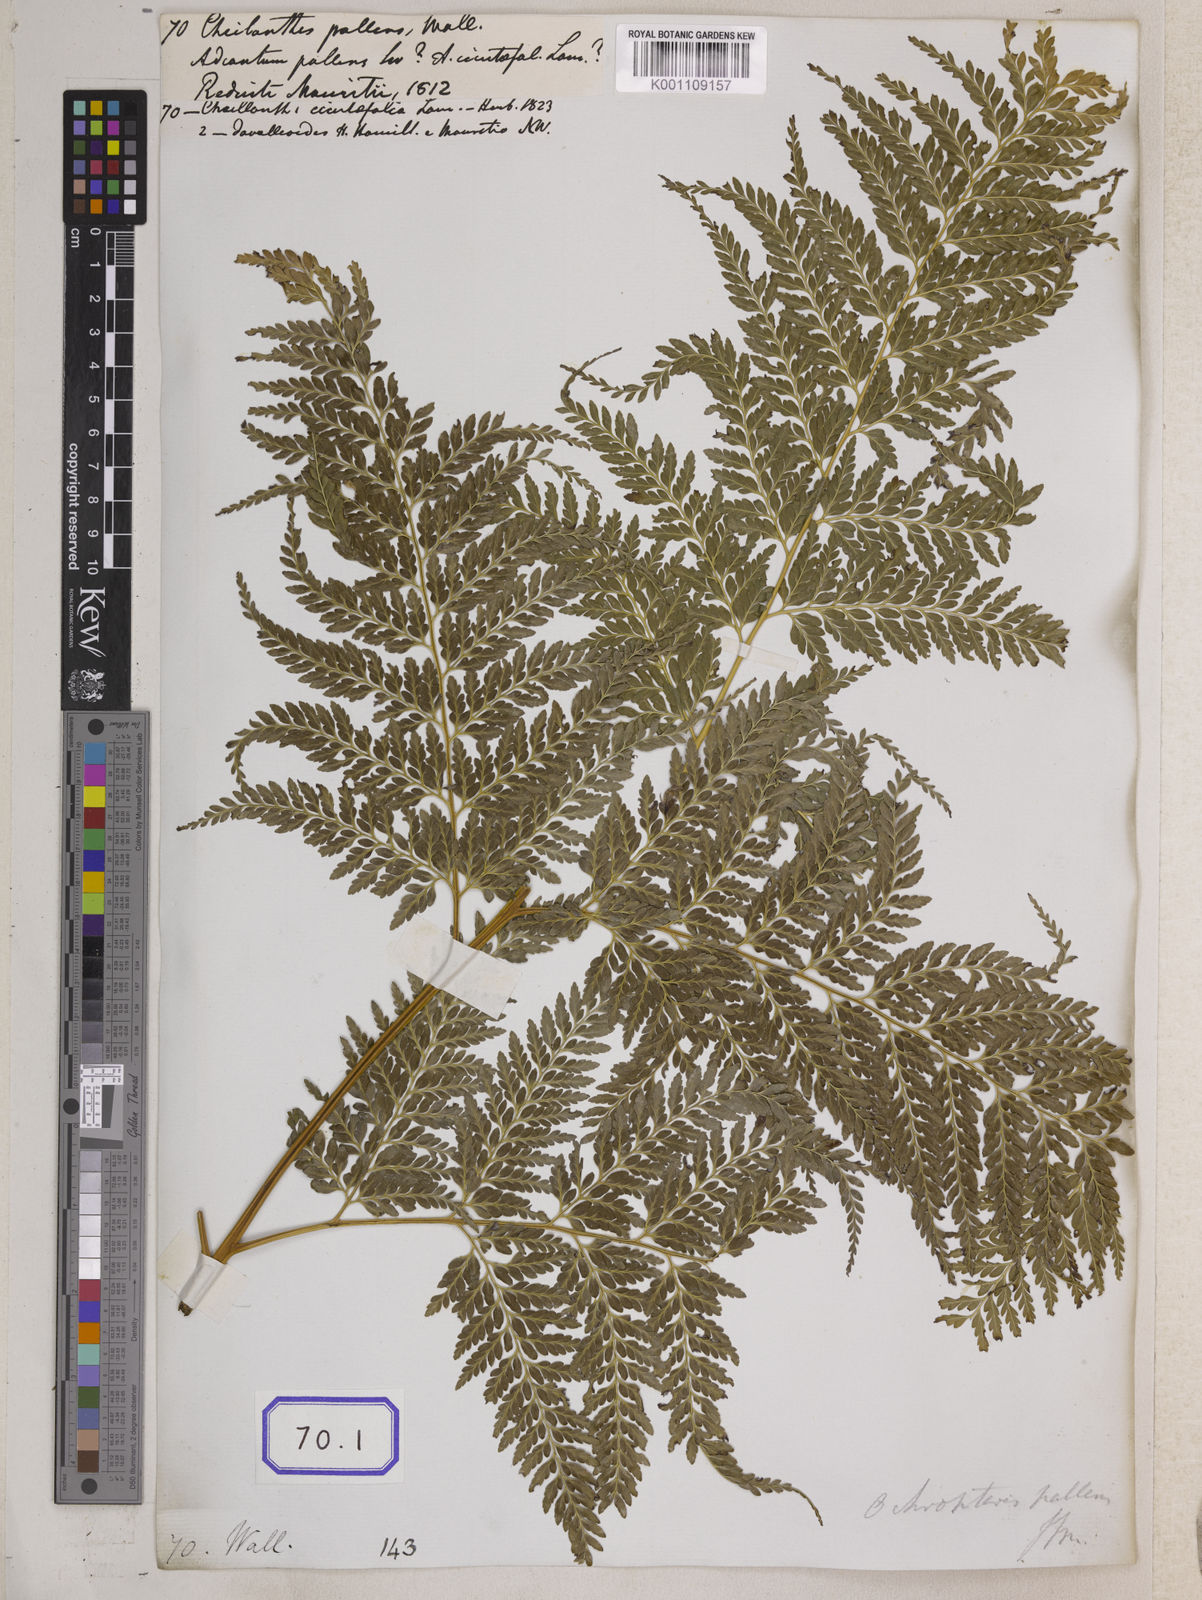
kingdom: Plantae
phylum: Tracheophyta
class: Polypodiopsida
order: Polypodiales
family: Pteridaceae
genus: Cheilanthes
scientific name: Cheilanthes
